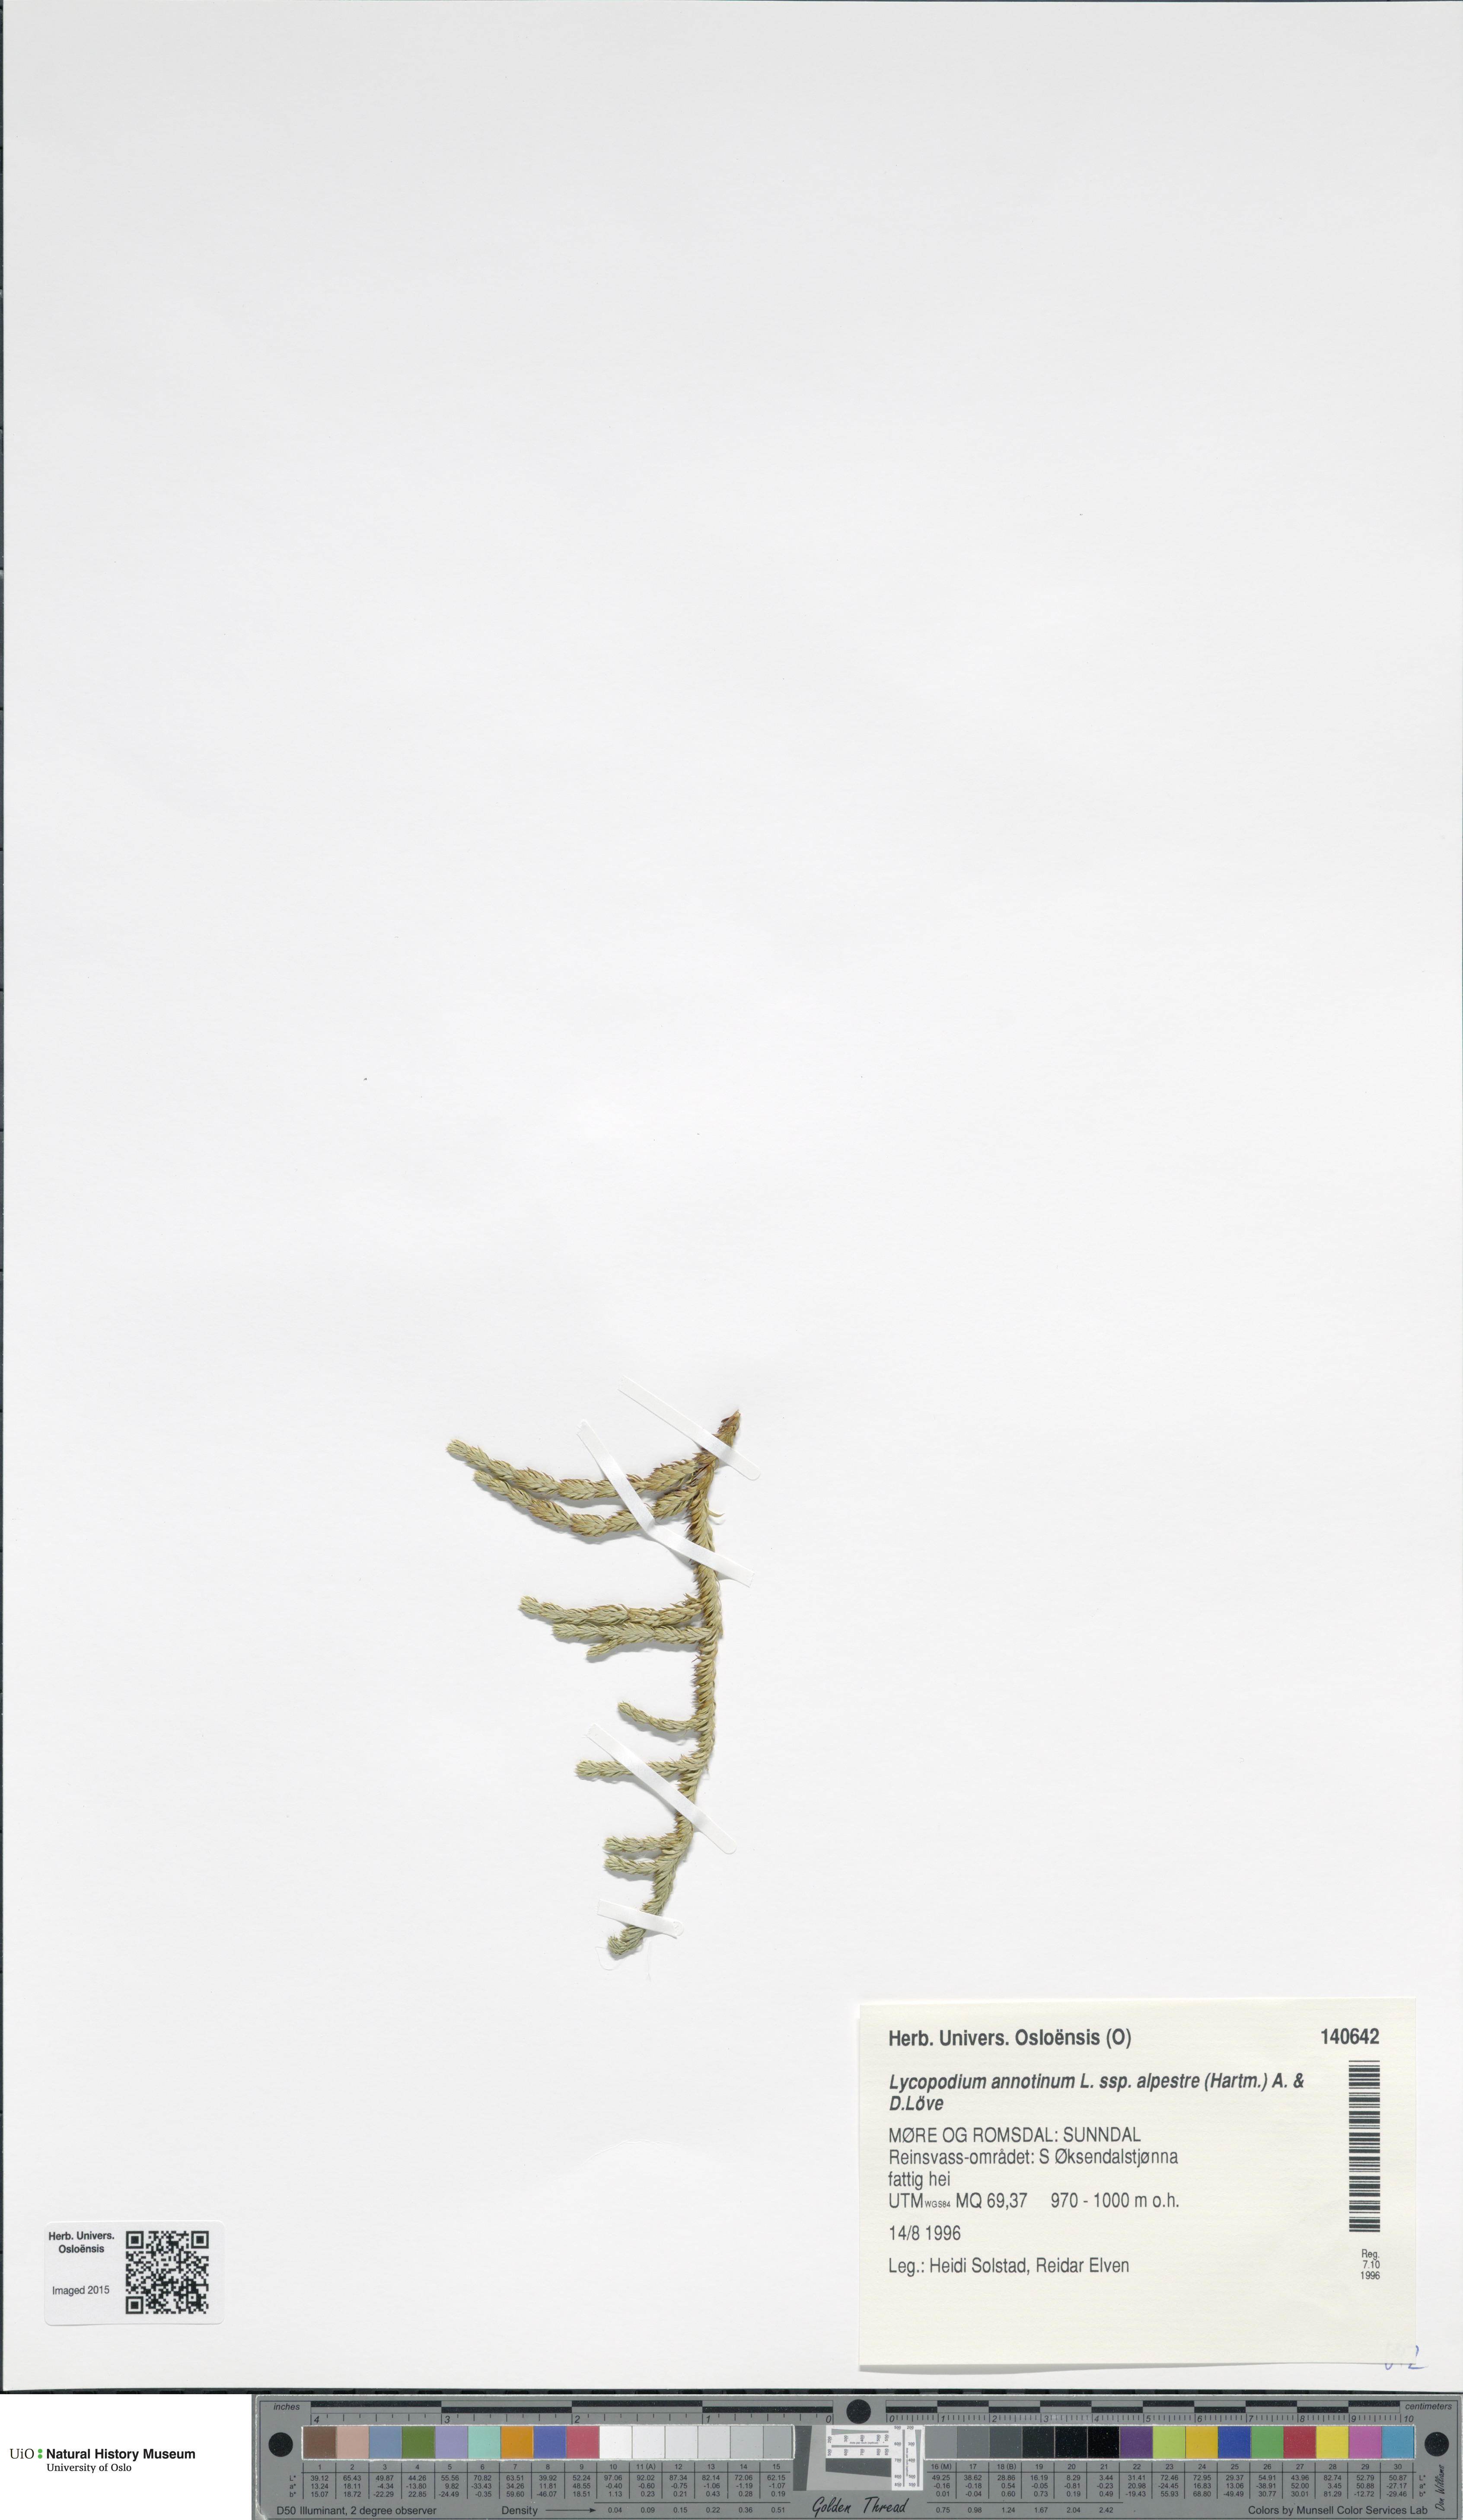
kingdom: Plantae
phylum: Tracheophyta
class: Lycopodiopsida
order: Lycopodiales
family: Lycopodiaceae
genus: Spinulum
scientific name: Spinulum annotinum
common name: Interrupted club-moss
